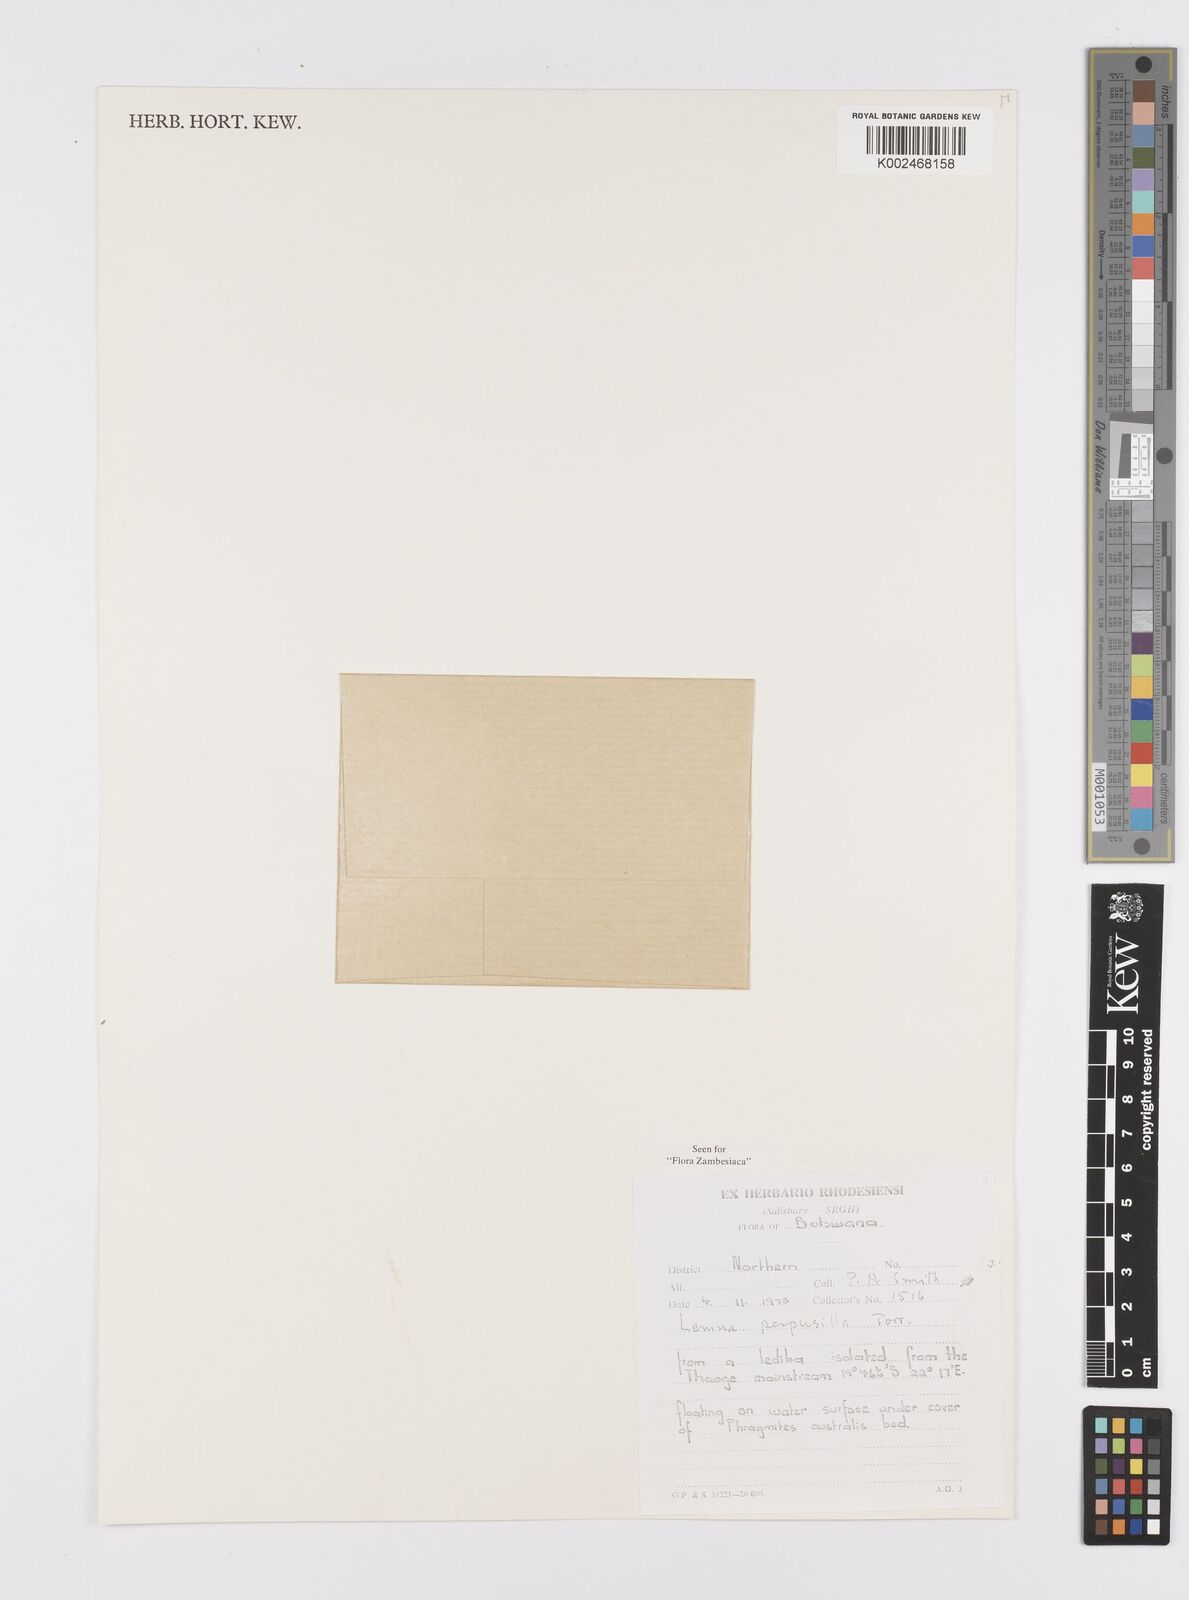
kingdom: Plantae
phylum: Tracheophyta
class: Liliopsida
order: Alismatales
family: Araceae
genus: Lemna
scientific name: Lemna aequinoctialis
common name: Duckweed
